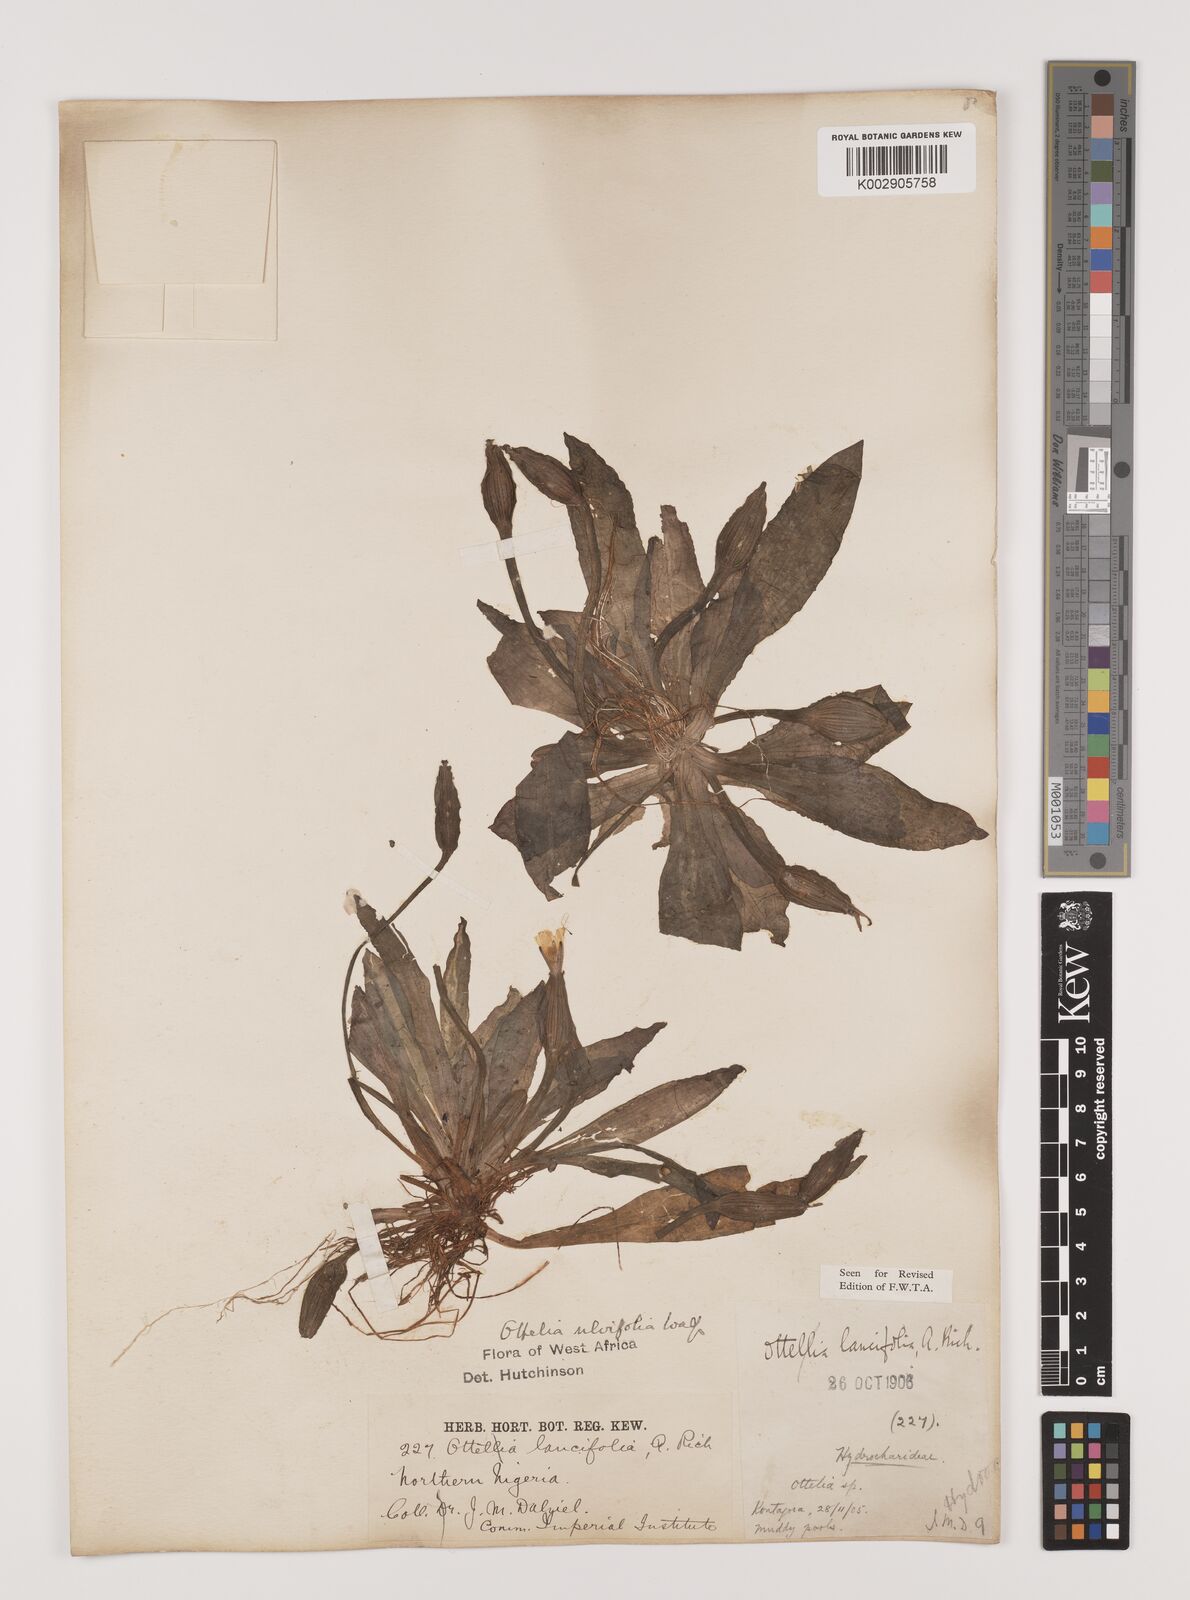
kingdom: Plantae
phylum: Tracheophyta
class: Liliopsida
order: Alismatales
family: Hydrocharitaceae
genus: Ottelia
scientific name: Ottelia ulvifolia
